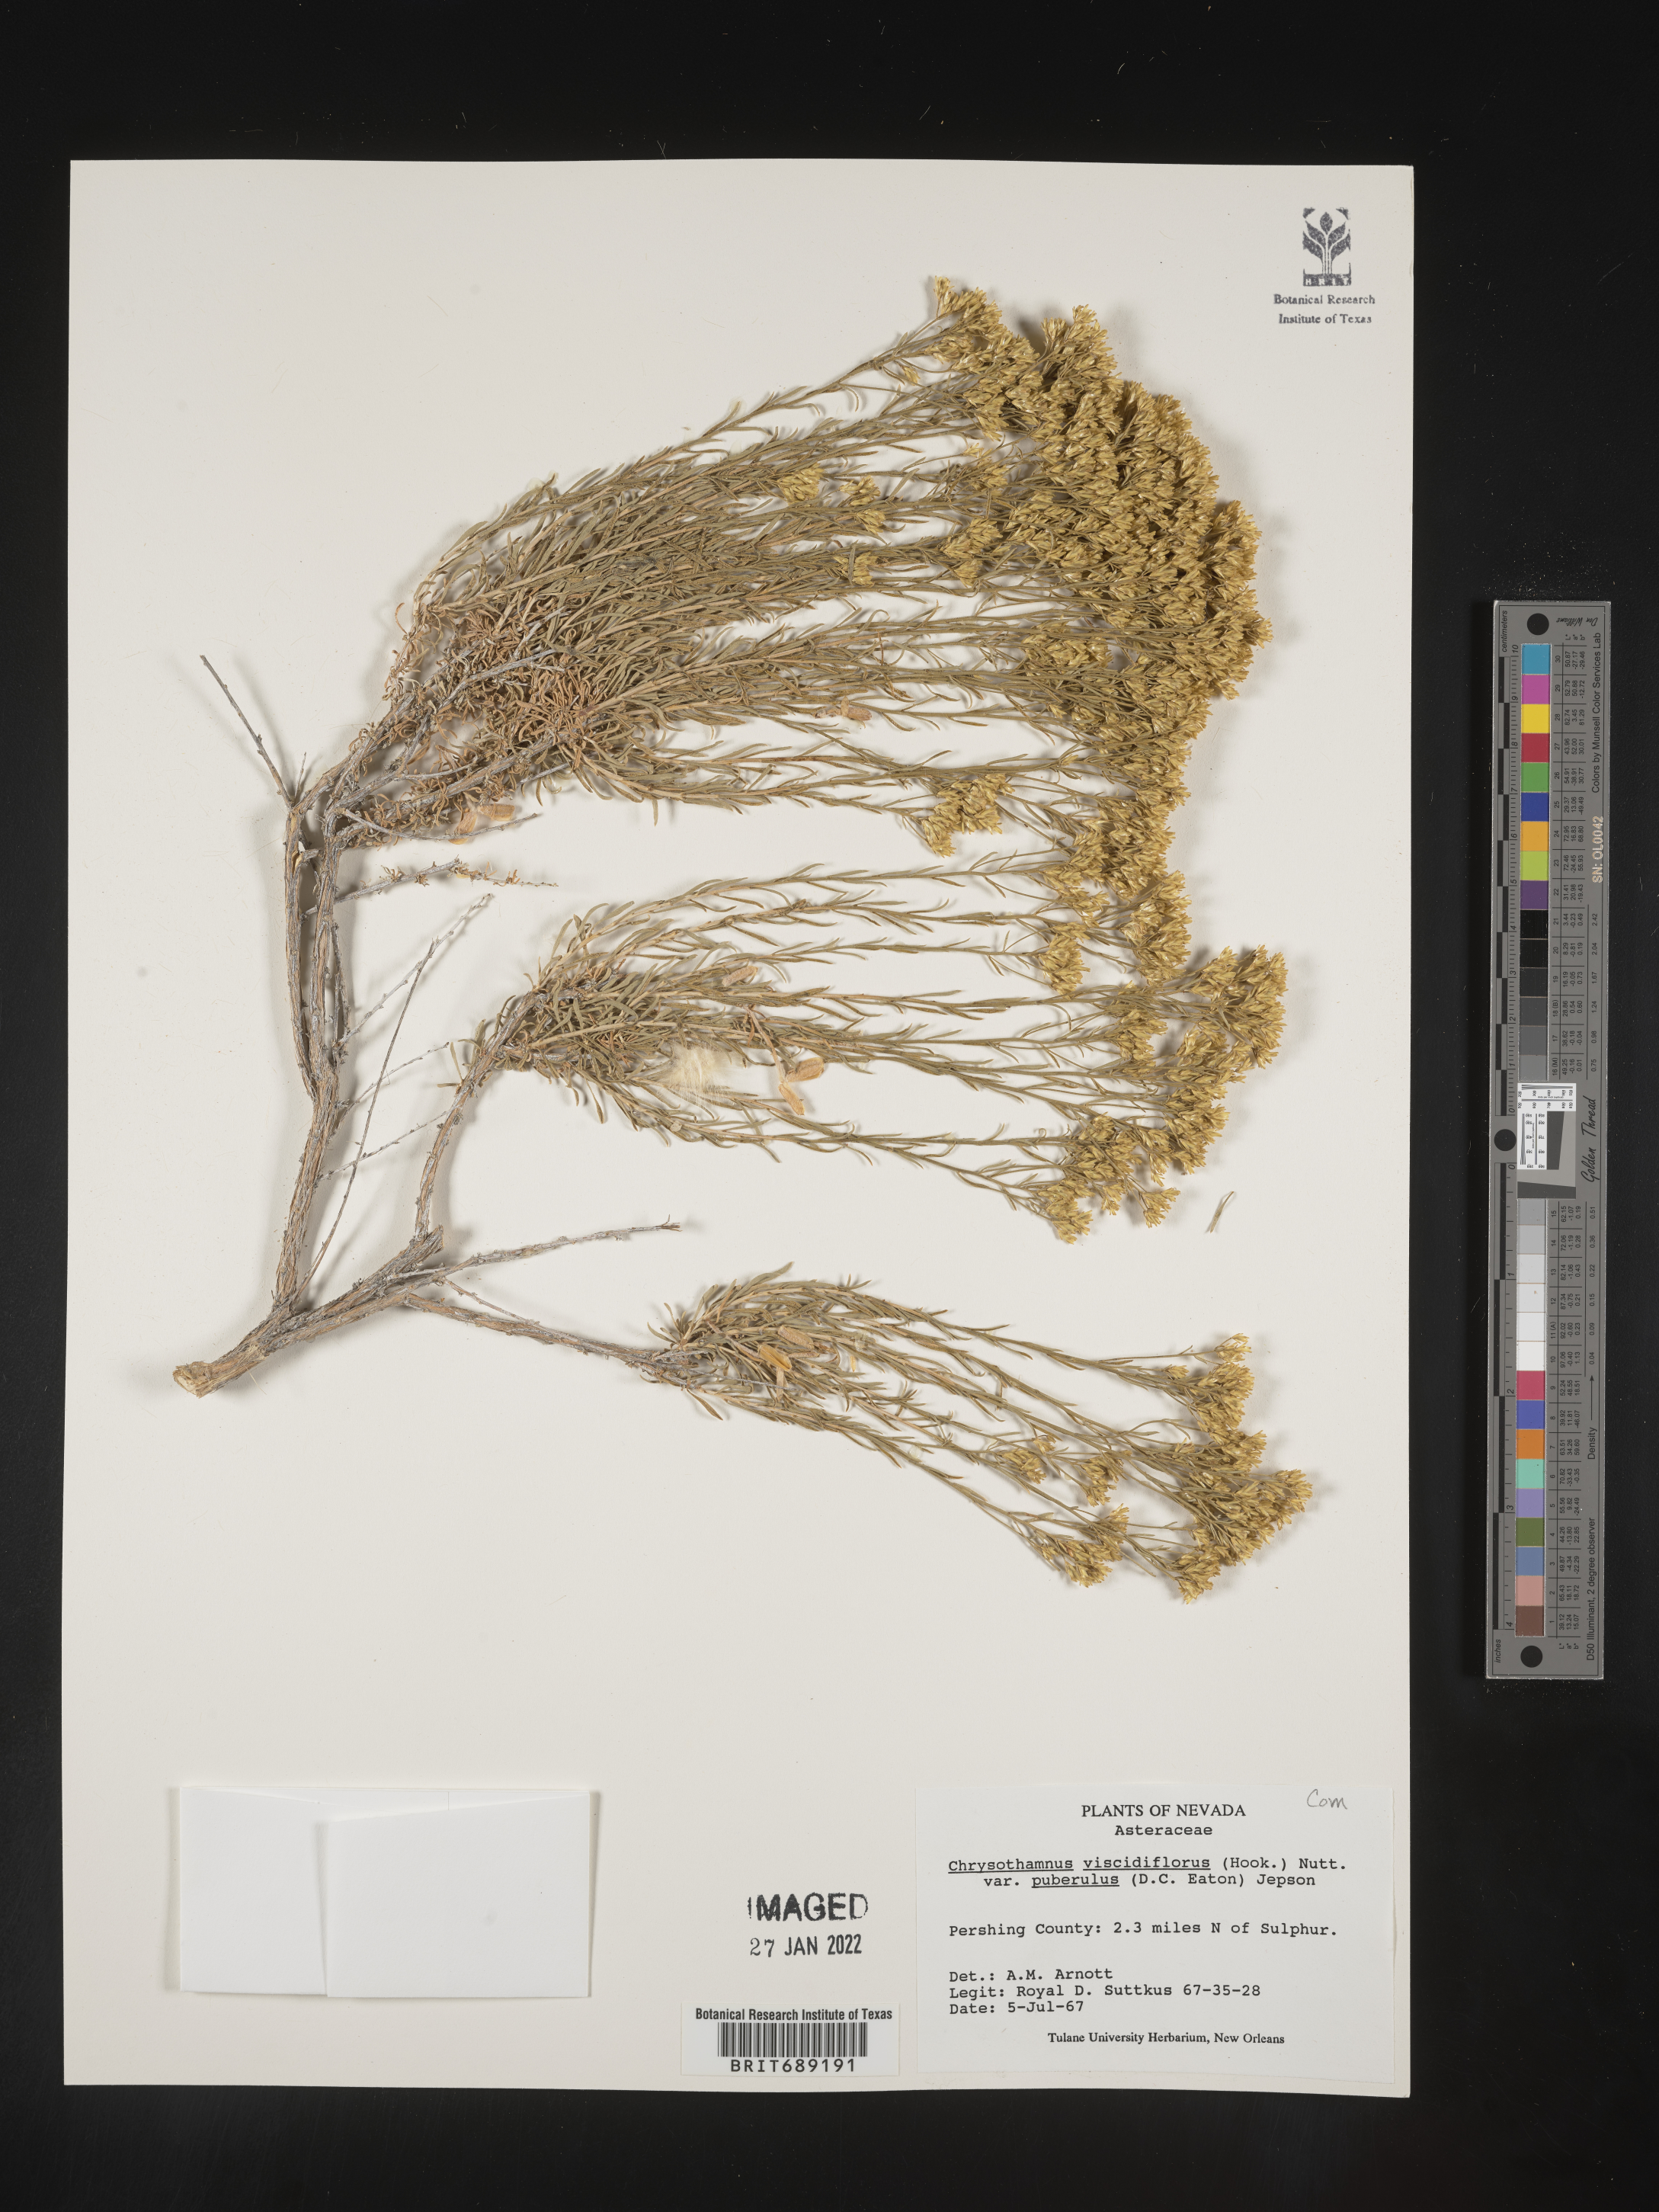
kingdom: Plantae
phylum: Tracheophyta
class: Magnoliopsida
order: Asterales
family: Asteraceae
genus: Chrysothamnus
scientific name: Chrysothamnus
